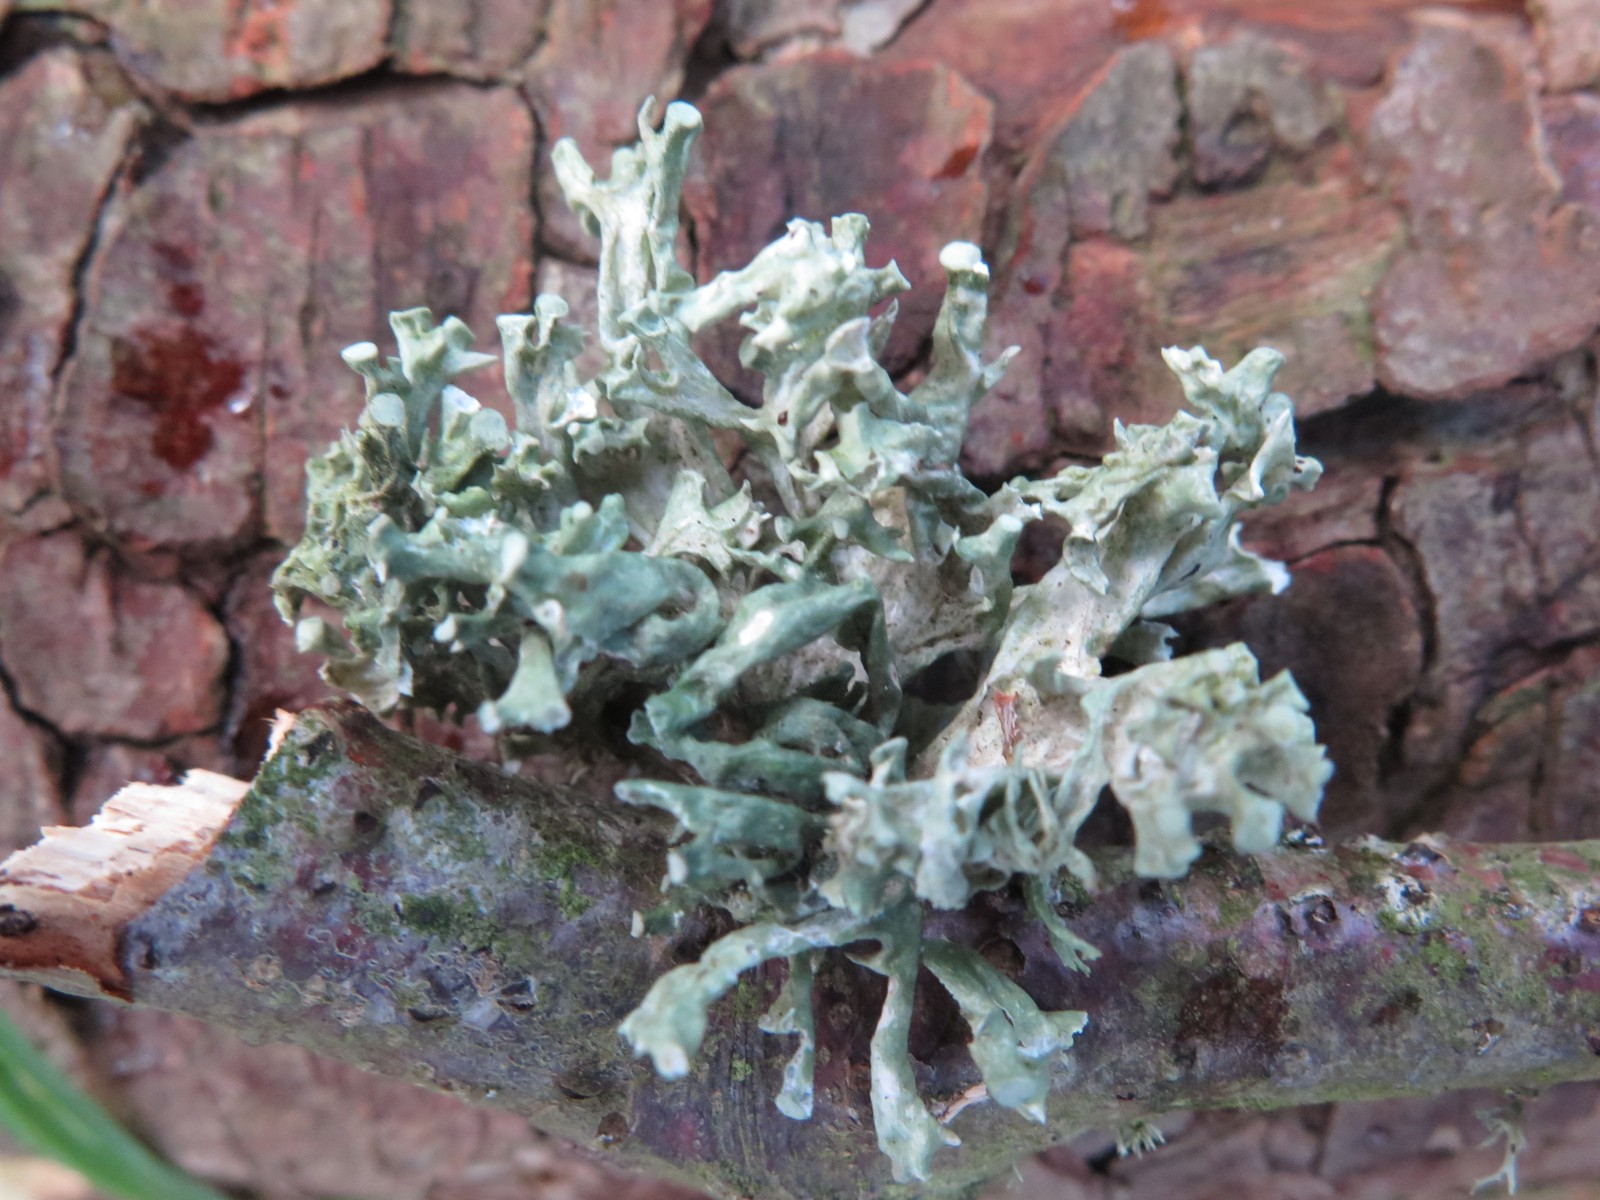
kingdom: Fungi
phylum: Ascomycota
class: Lecanoromycetes
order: Lecanorales
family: Ramalinaceae
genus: Ramalina
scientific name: Ramalina fastigiata
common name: tue-grenlav
